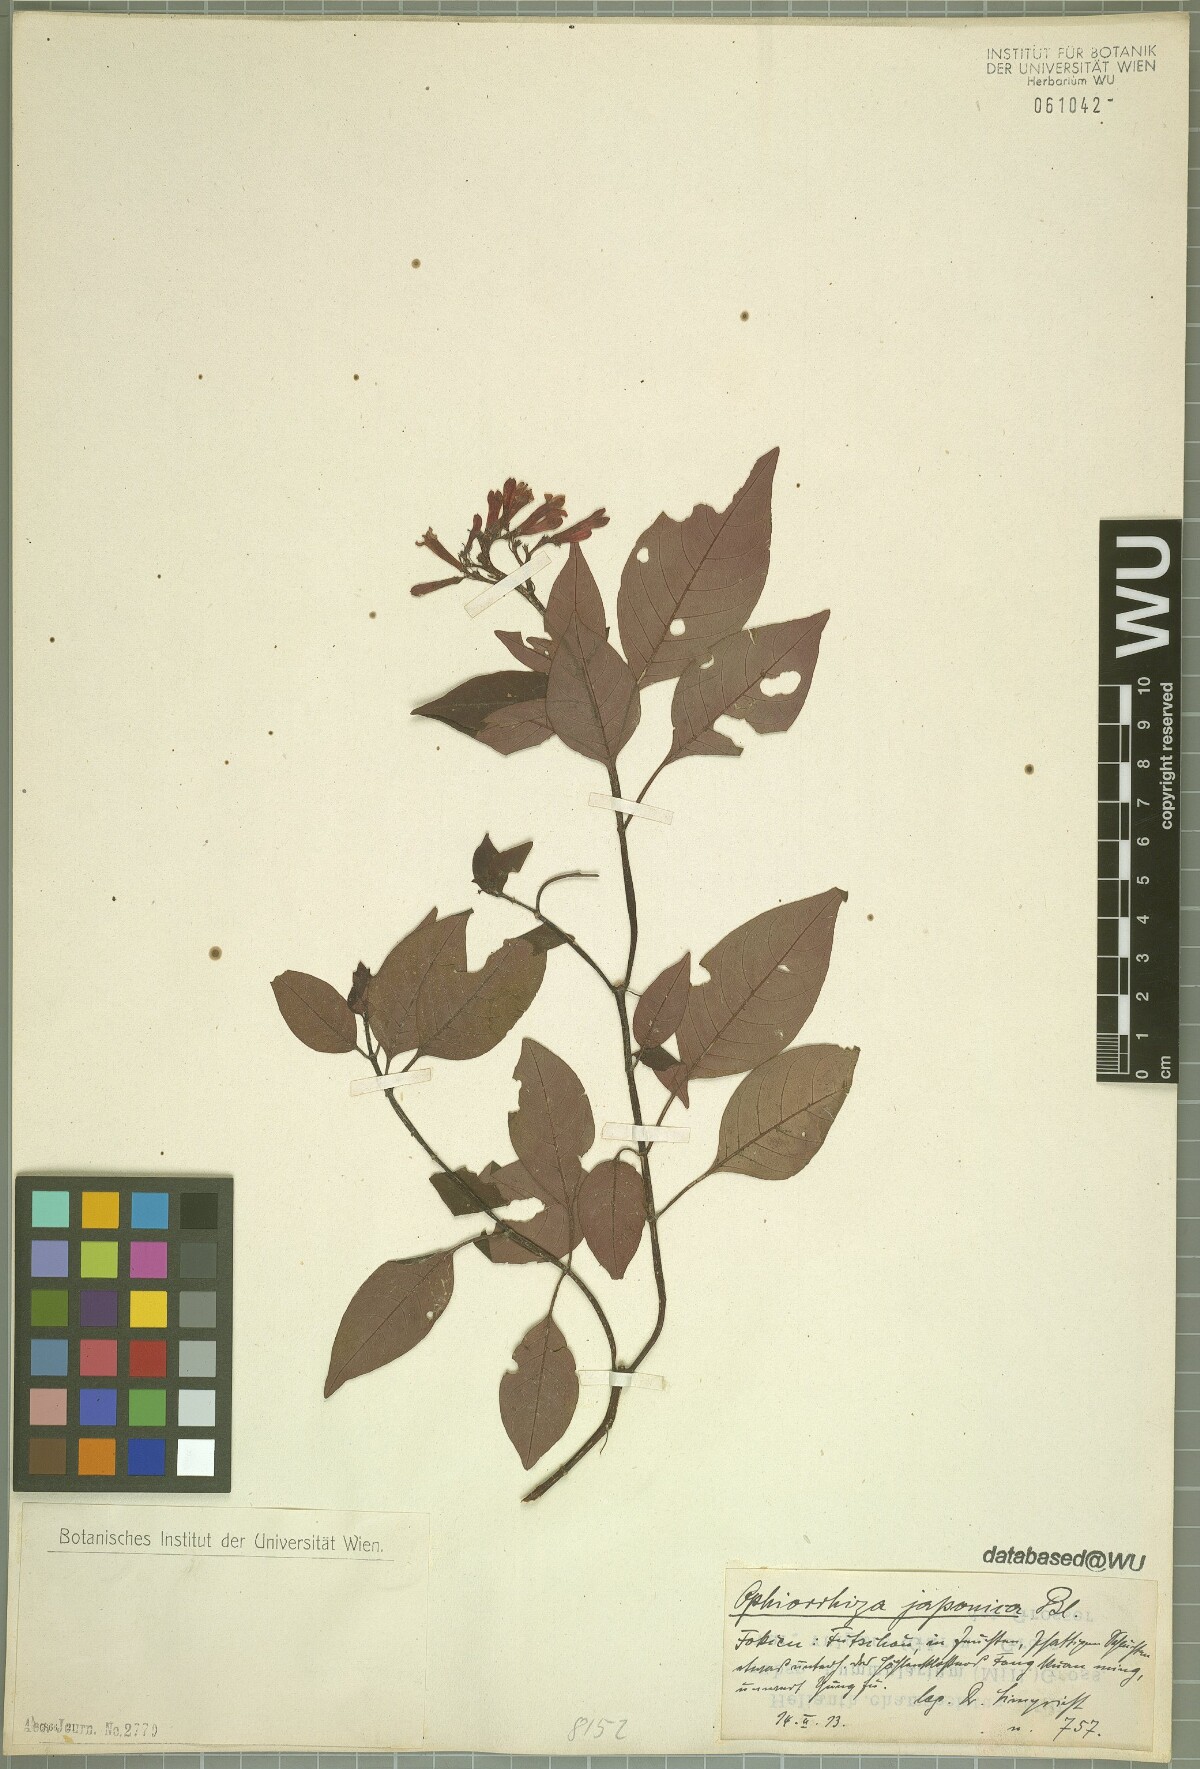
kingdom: Plantae
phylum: Tracheophyta
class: Magnoliopsida
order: Gentianales
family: Rubiaceae
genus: Ophiorrhiza
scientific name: Ophiorrhiza japonica
